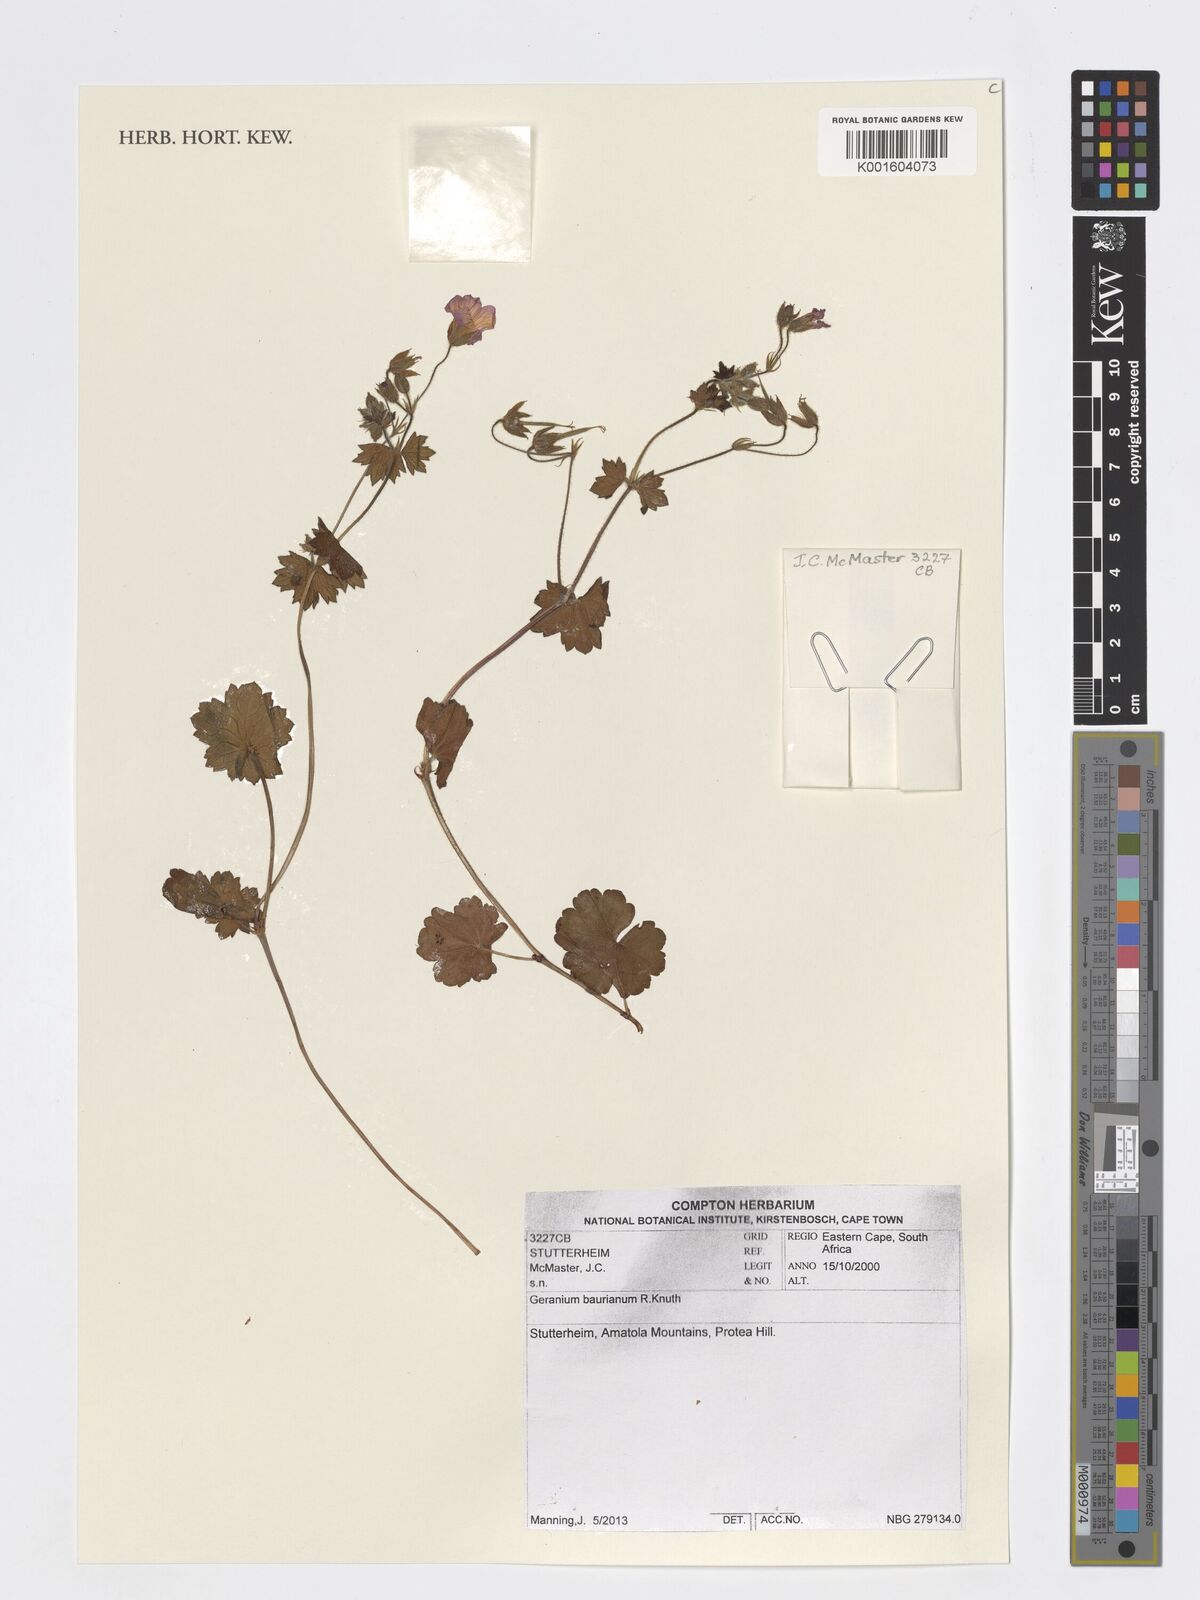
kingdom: Plantae
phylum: Tracheophyta
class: Magnoliopsida
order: Geraniales
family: Geraniaceae
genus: Geranium
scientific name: Geranium baurianum
